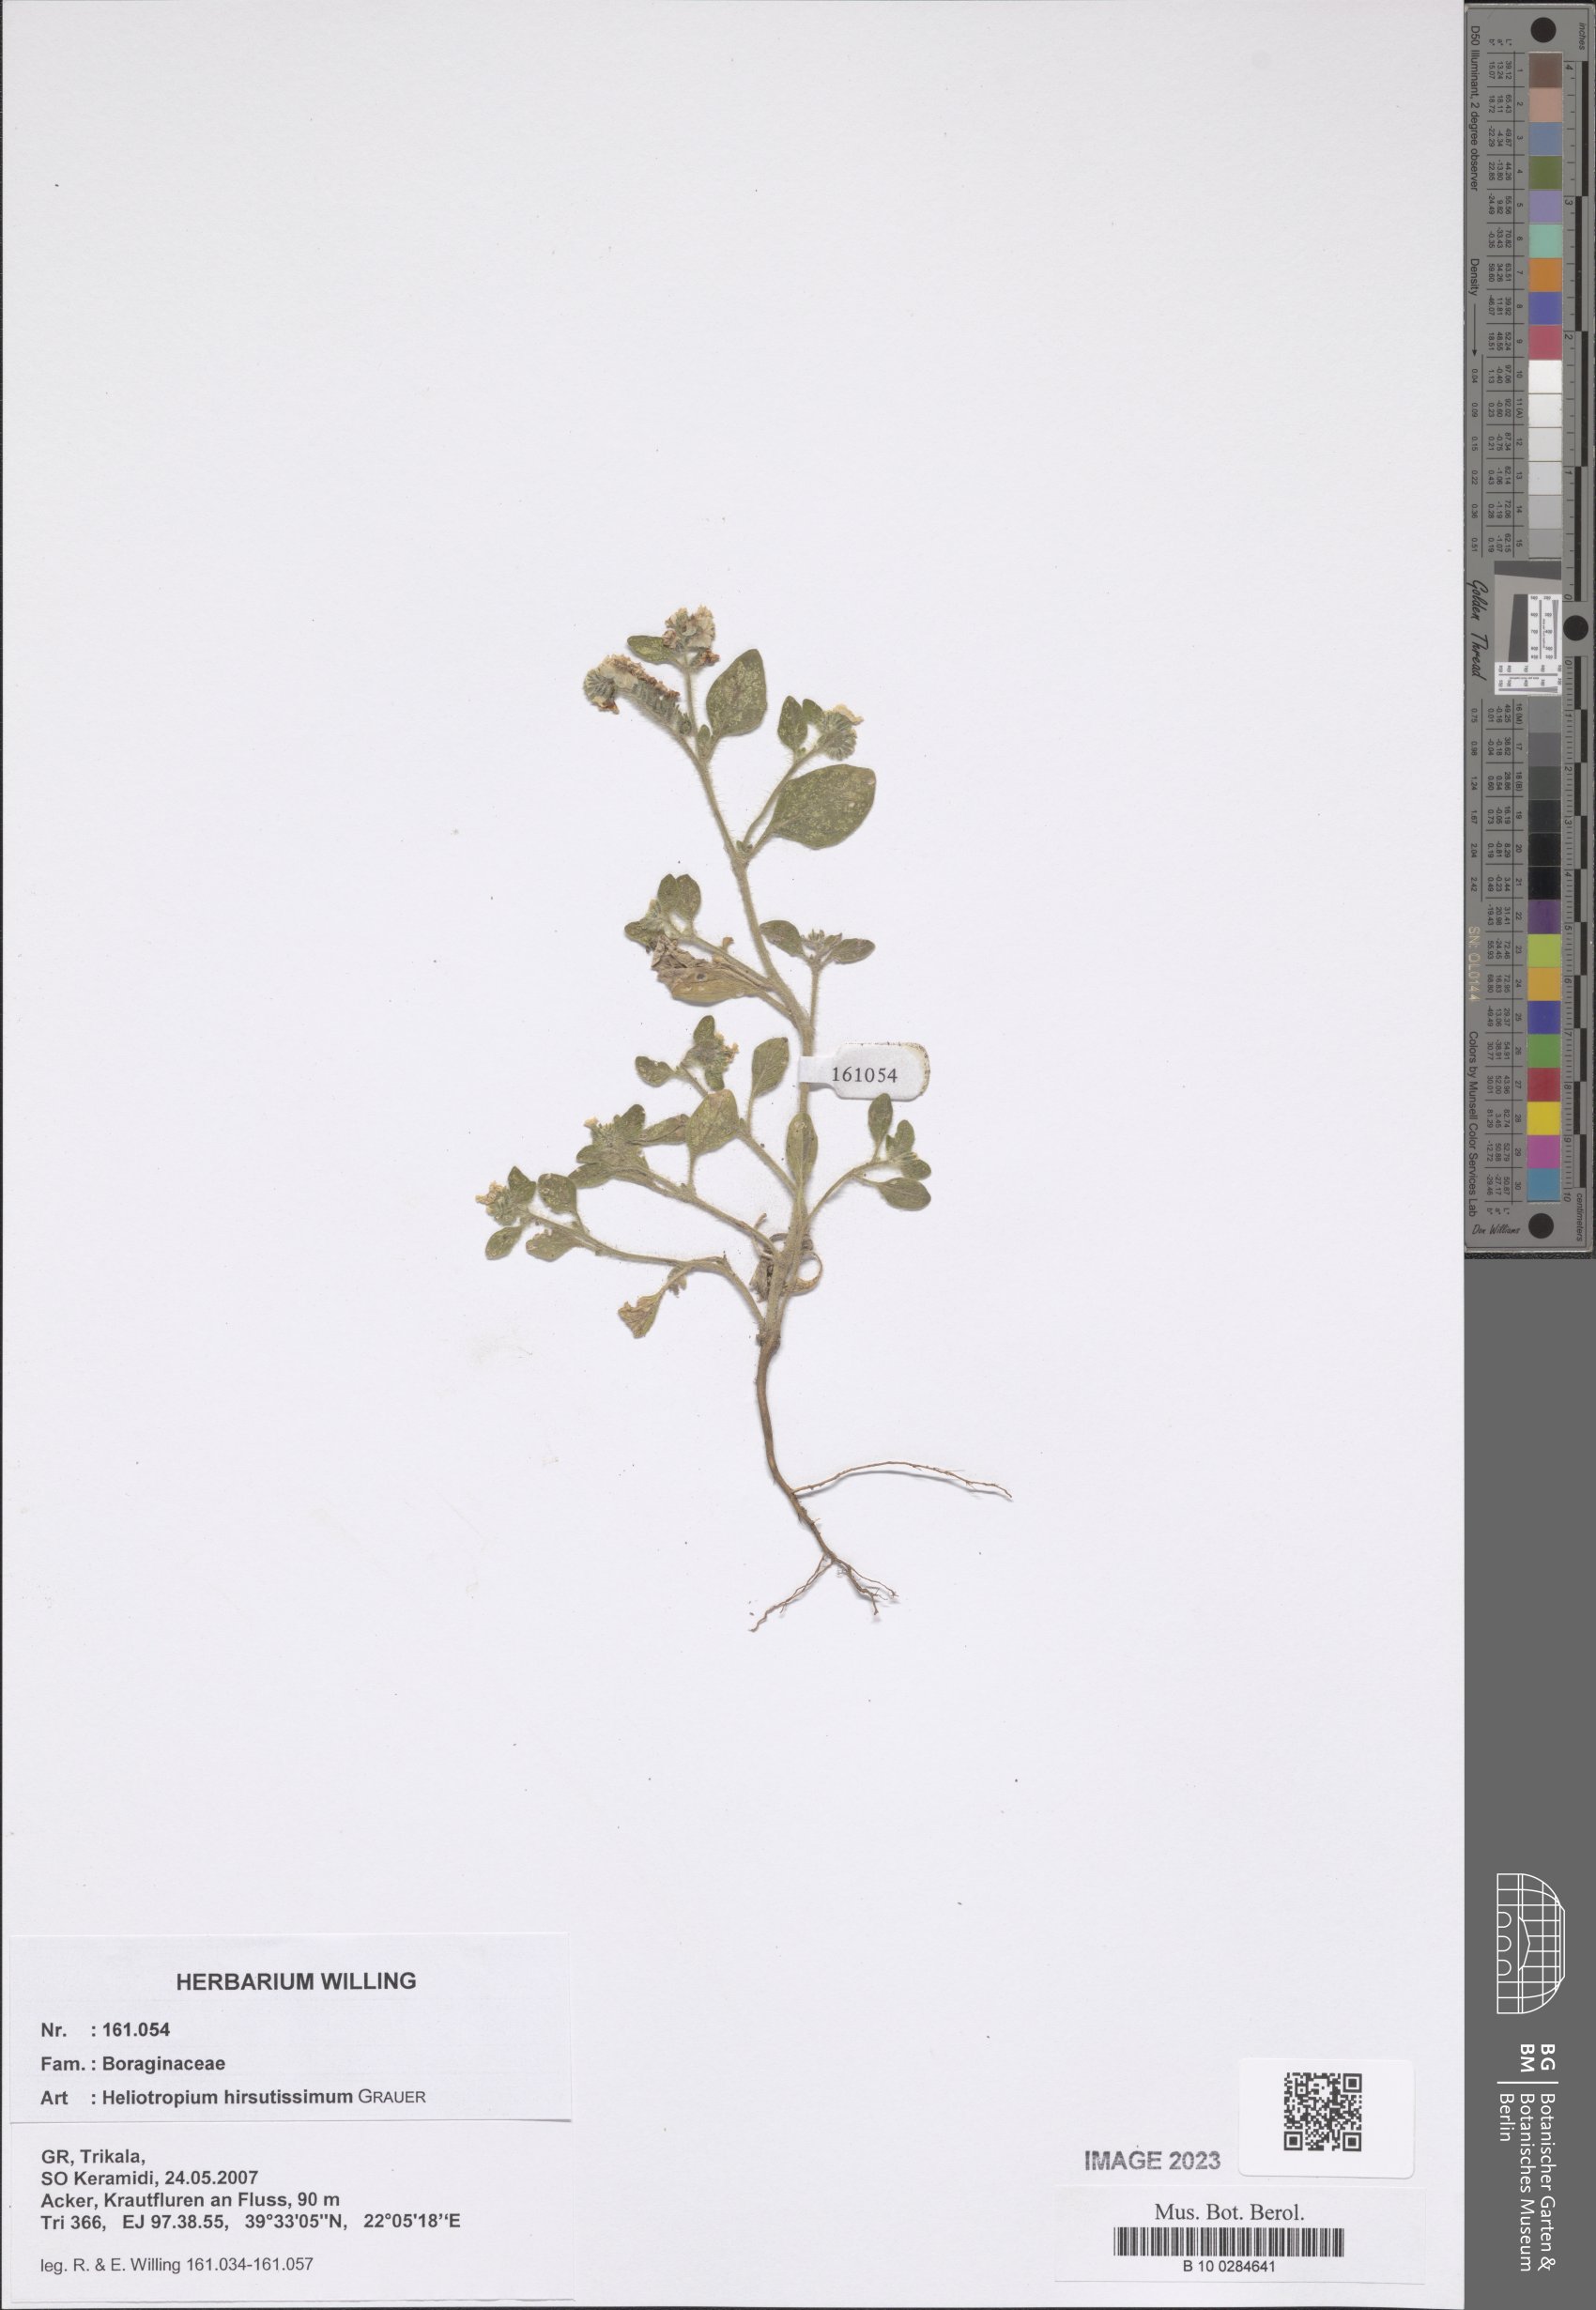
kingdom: Plantae
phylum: Tracheophyta
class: Magnoliopsida
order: Boraginales
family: Heliotropiaceae
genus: Heliotropium
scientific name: Heliotropium hirsutissimum
